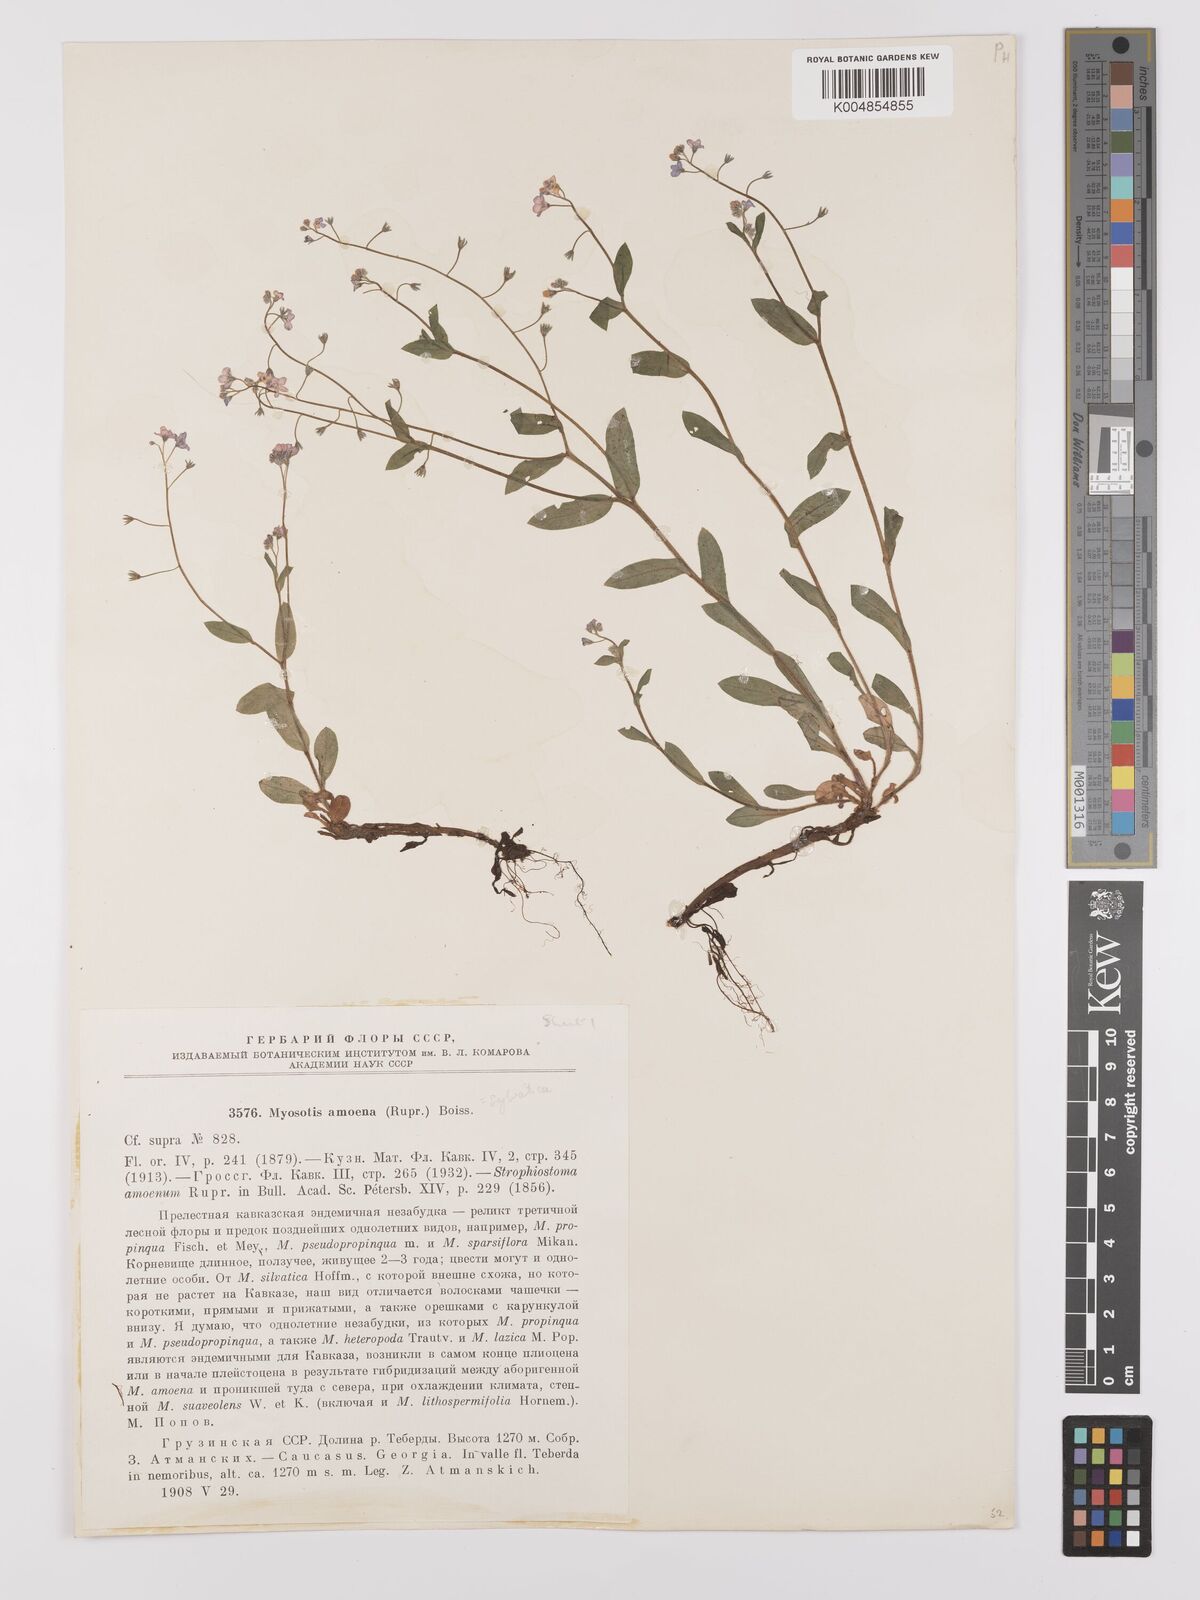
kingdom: Plantae
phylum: Tracheophyta
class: Magnoliopsida
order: Boraginales
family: Boraginaceae
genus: Myosotis
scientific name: Myosotis
